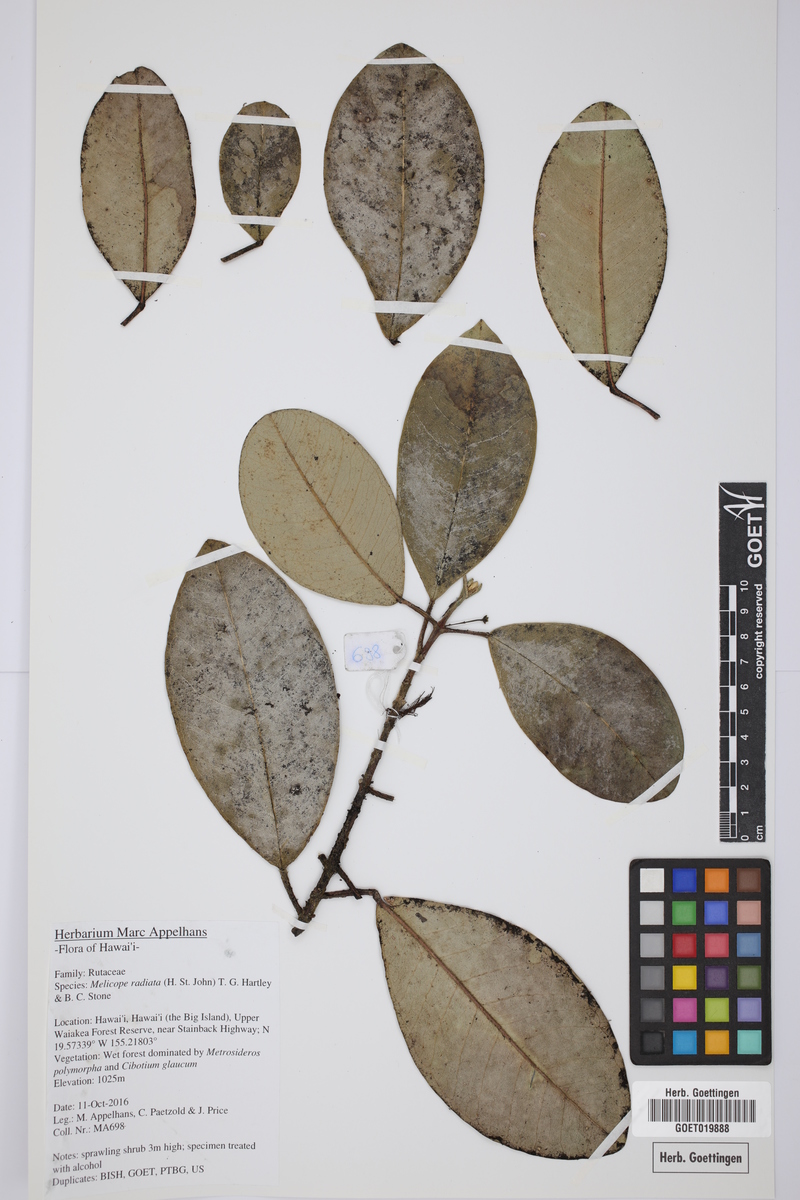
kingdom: Plantae
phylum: Tracheophyta
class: Magnoliopsida
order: Sapindales
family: Rutaceae
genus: Melicope
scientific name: Melicope radiata
